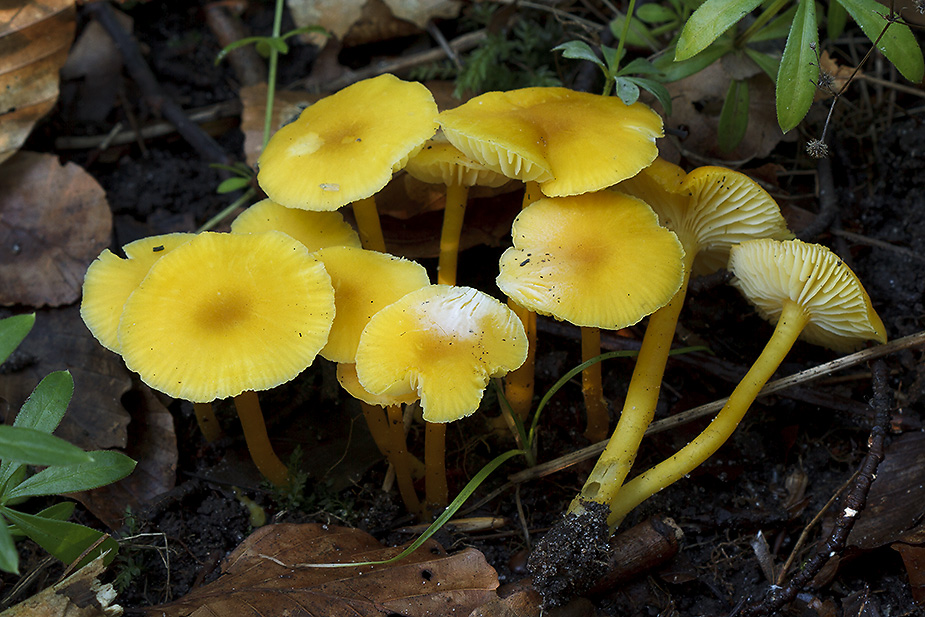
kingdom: Fungi
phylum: Basidiomycota
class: Agaricomycetes
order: Agaricales
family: Hygrophoraceae
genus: Hygrocybe
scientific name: Hygrocybe
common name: vokshat
